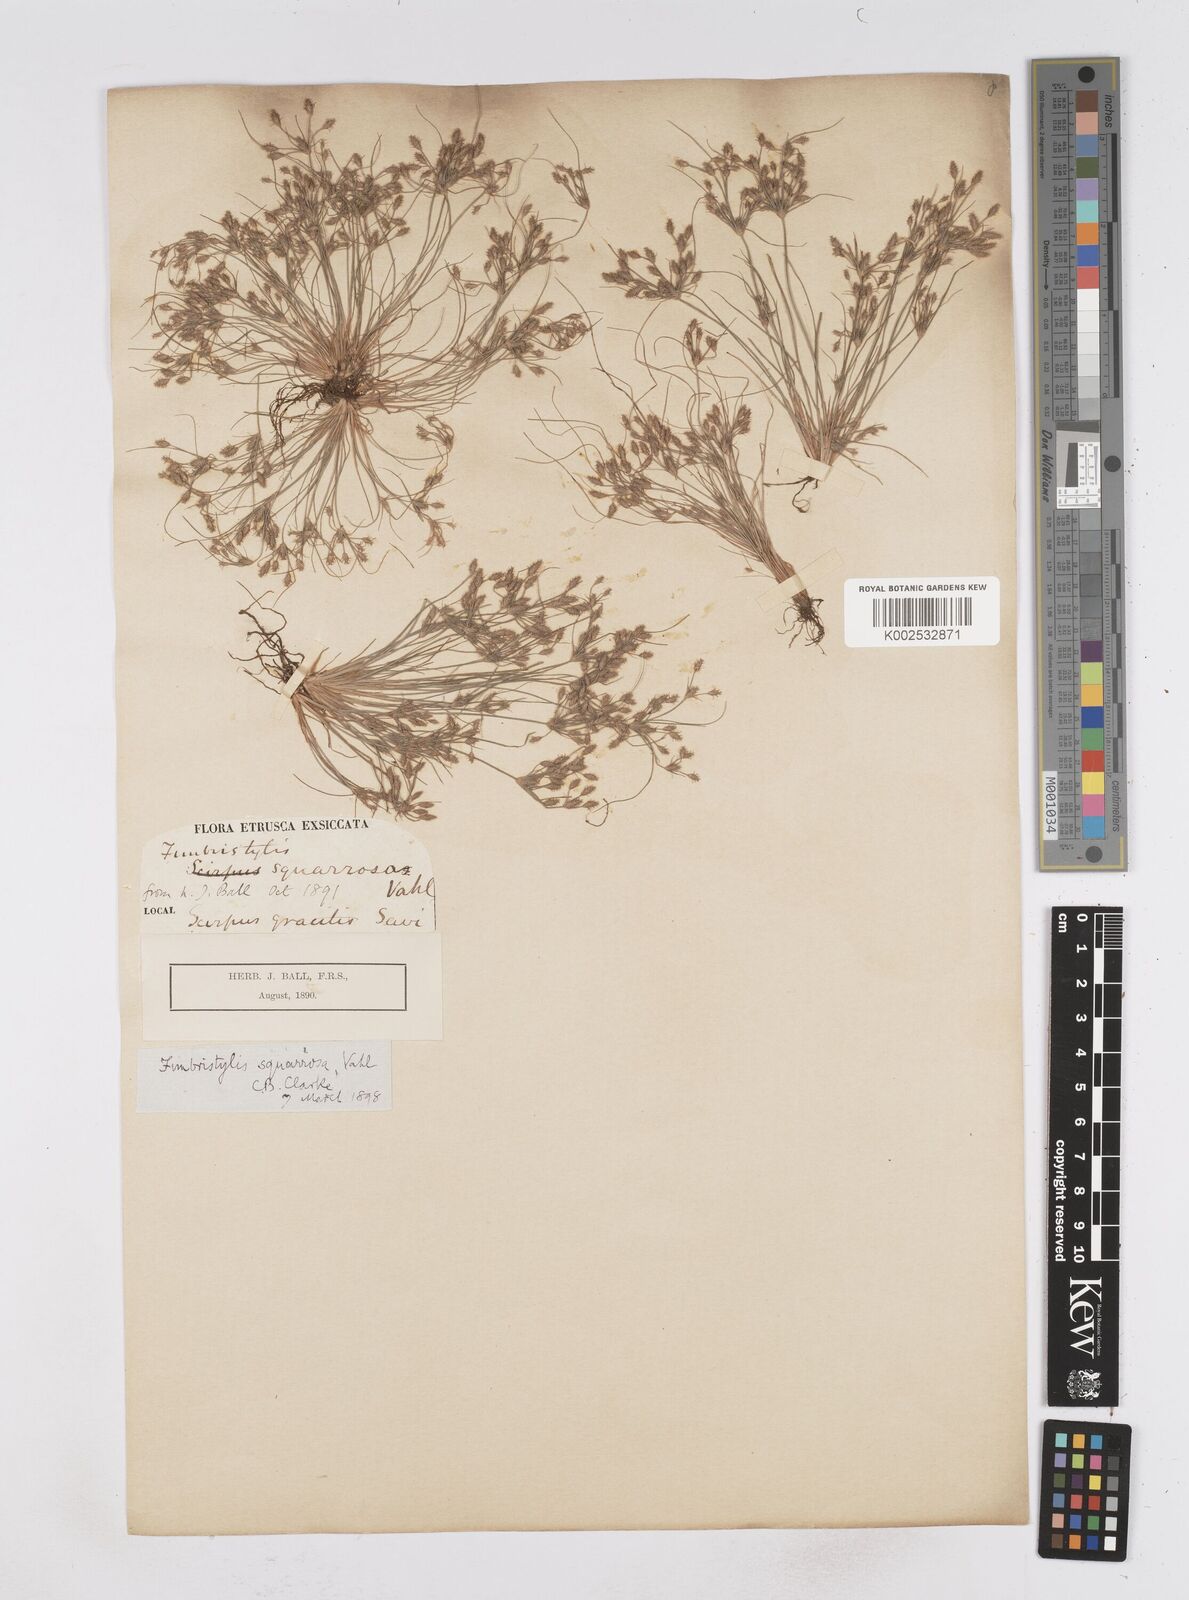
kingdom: Plantae
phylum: Tracheophyta
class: Liliopsida
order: Poales
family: Cyperaceae
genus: Fimbristylis
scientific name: Fimbristylis squarrosa
